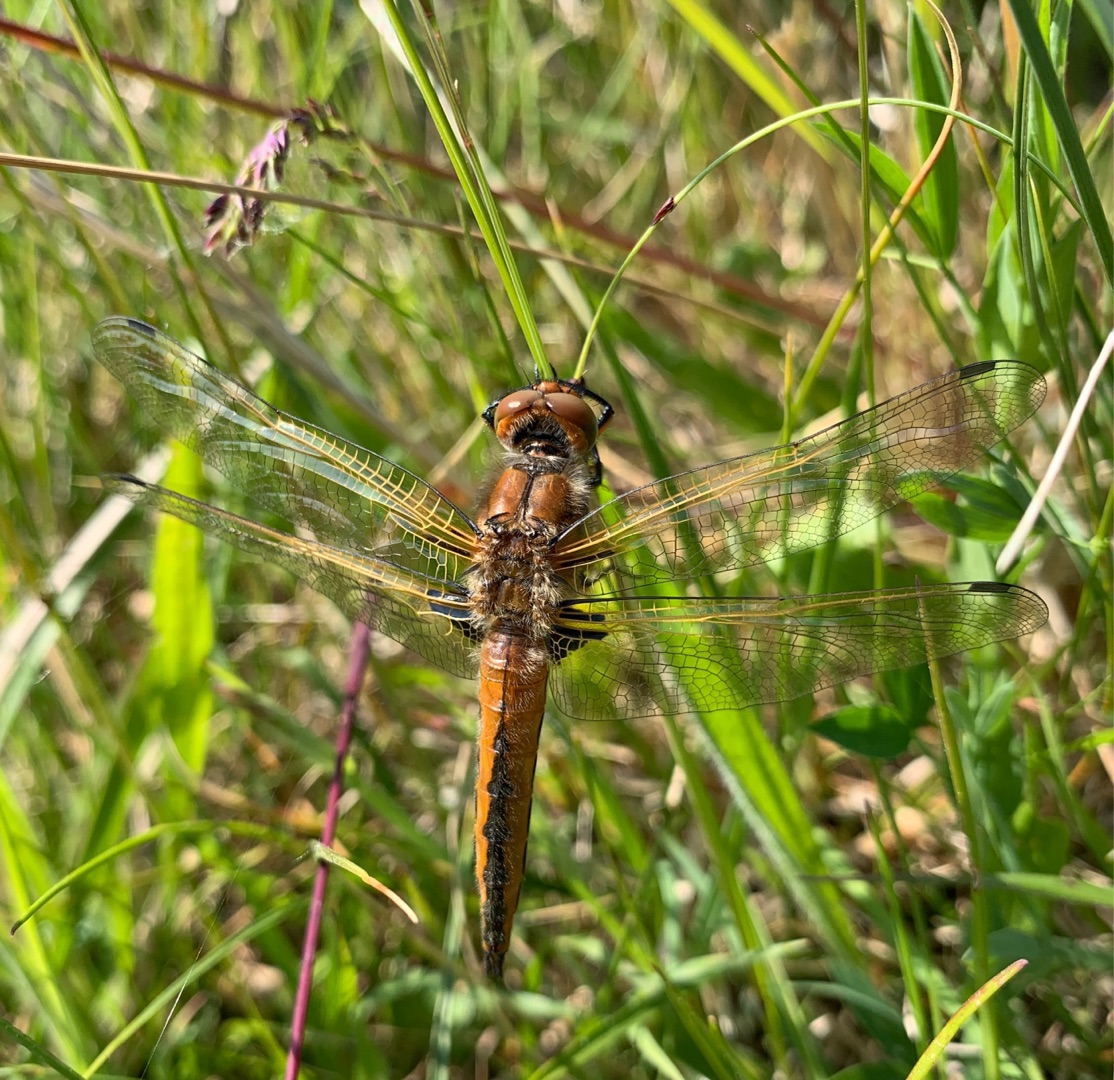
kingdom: Animalia
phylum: Arthropoda
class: Insecta
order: Odonata
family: Libellulidae
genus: Libellula
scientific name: Libellula fulva
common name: Spidsplettet libel
